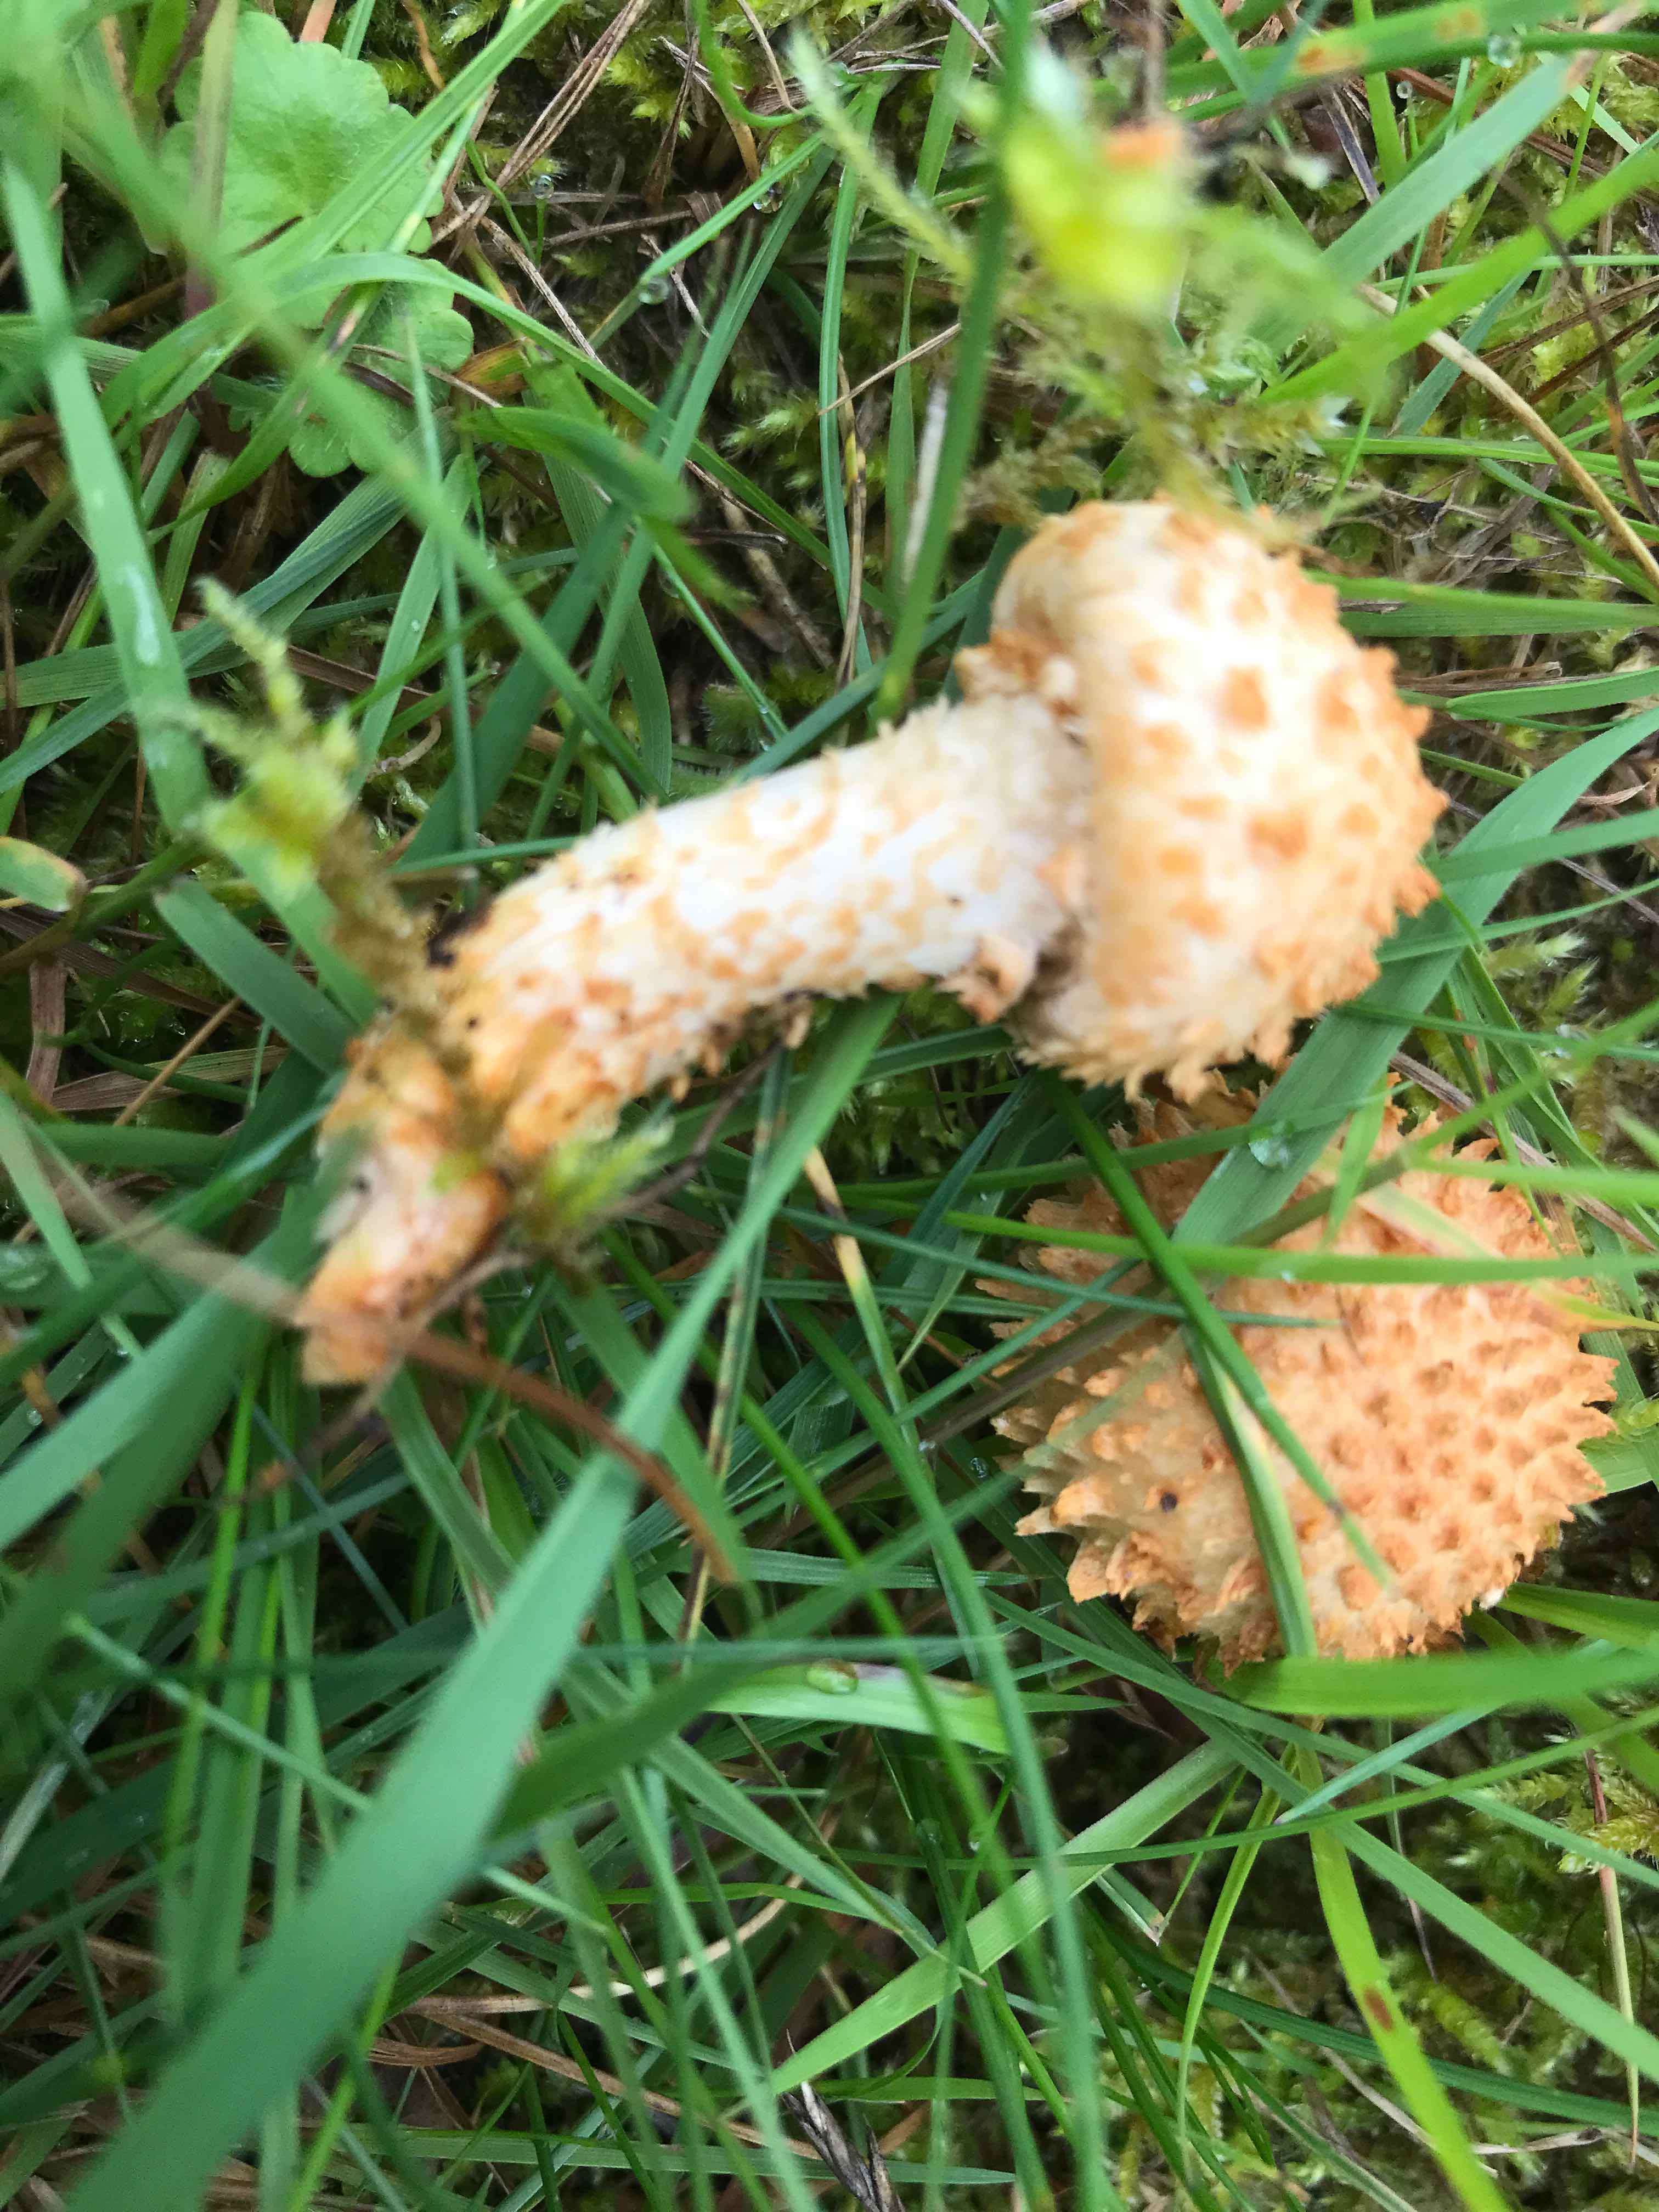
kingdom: Fungi
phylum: Basidiomycota
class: Agaricomycetes
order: Agaricales
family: Strophariaceae
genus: Pholiota
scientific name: Pholiota squarrosa
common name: krumskællet skælhat
